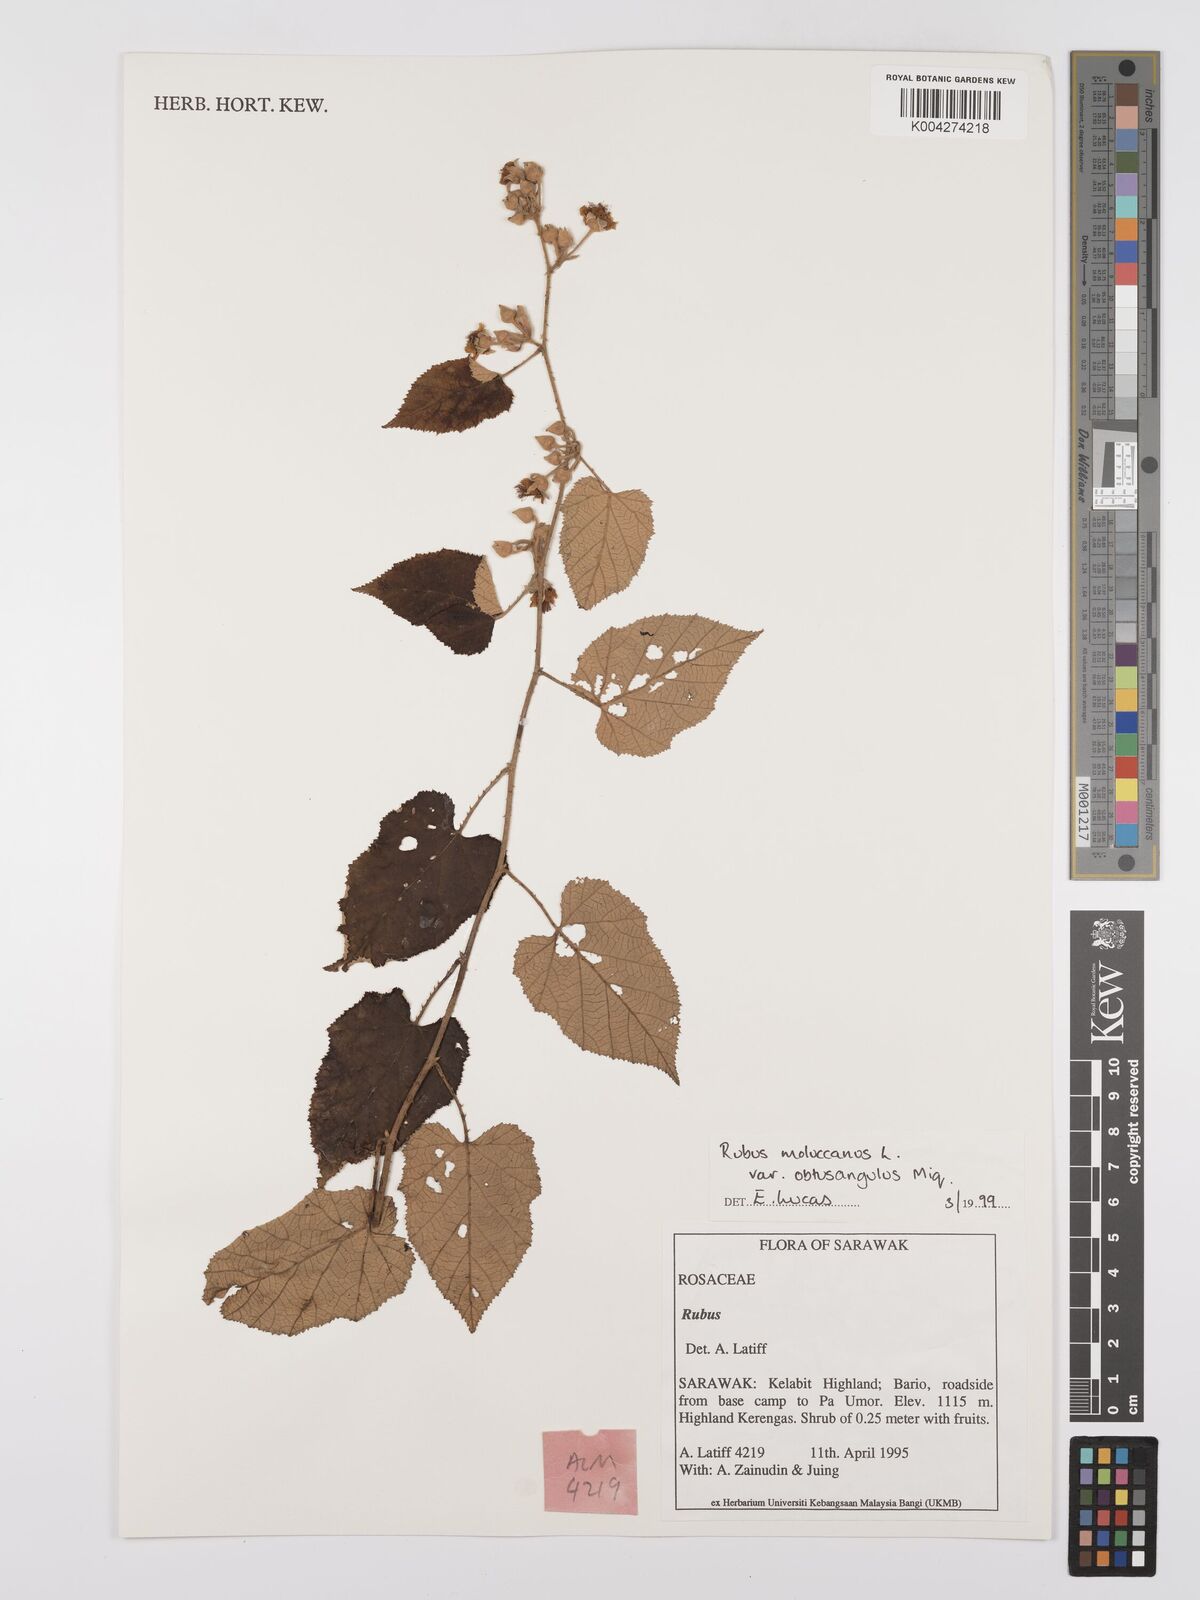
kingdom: Plantae
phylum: Tracheophyta
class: Magnoliopsida
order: Rosales
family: Rosaceae
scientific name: Rosaceae
